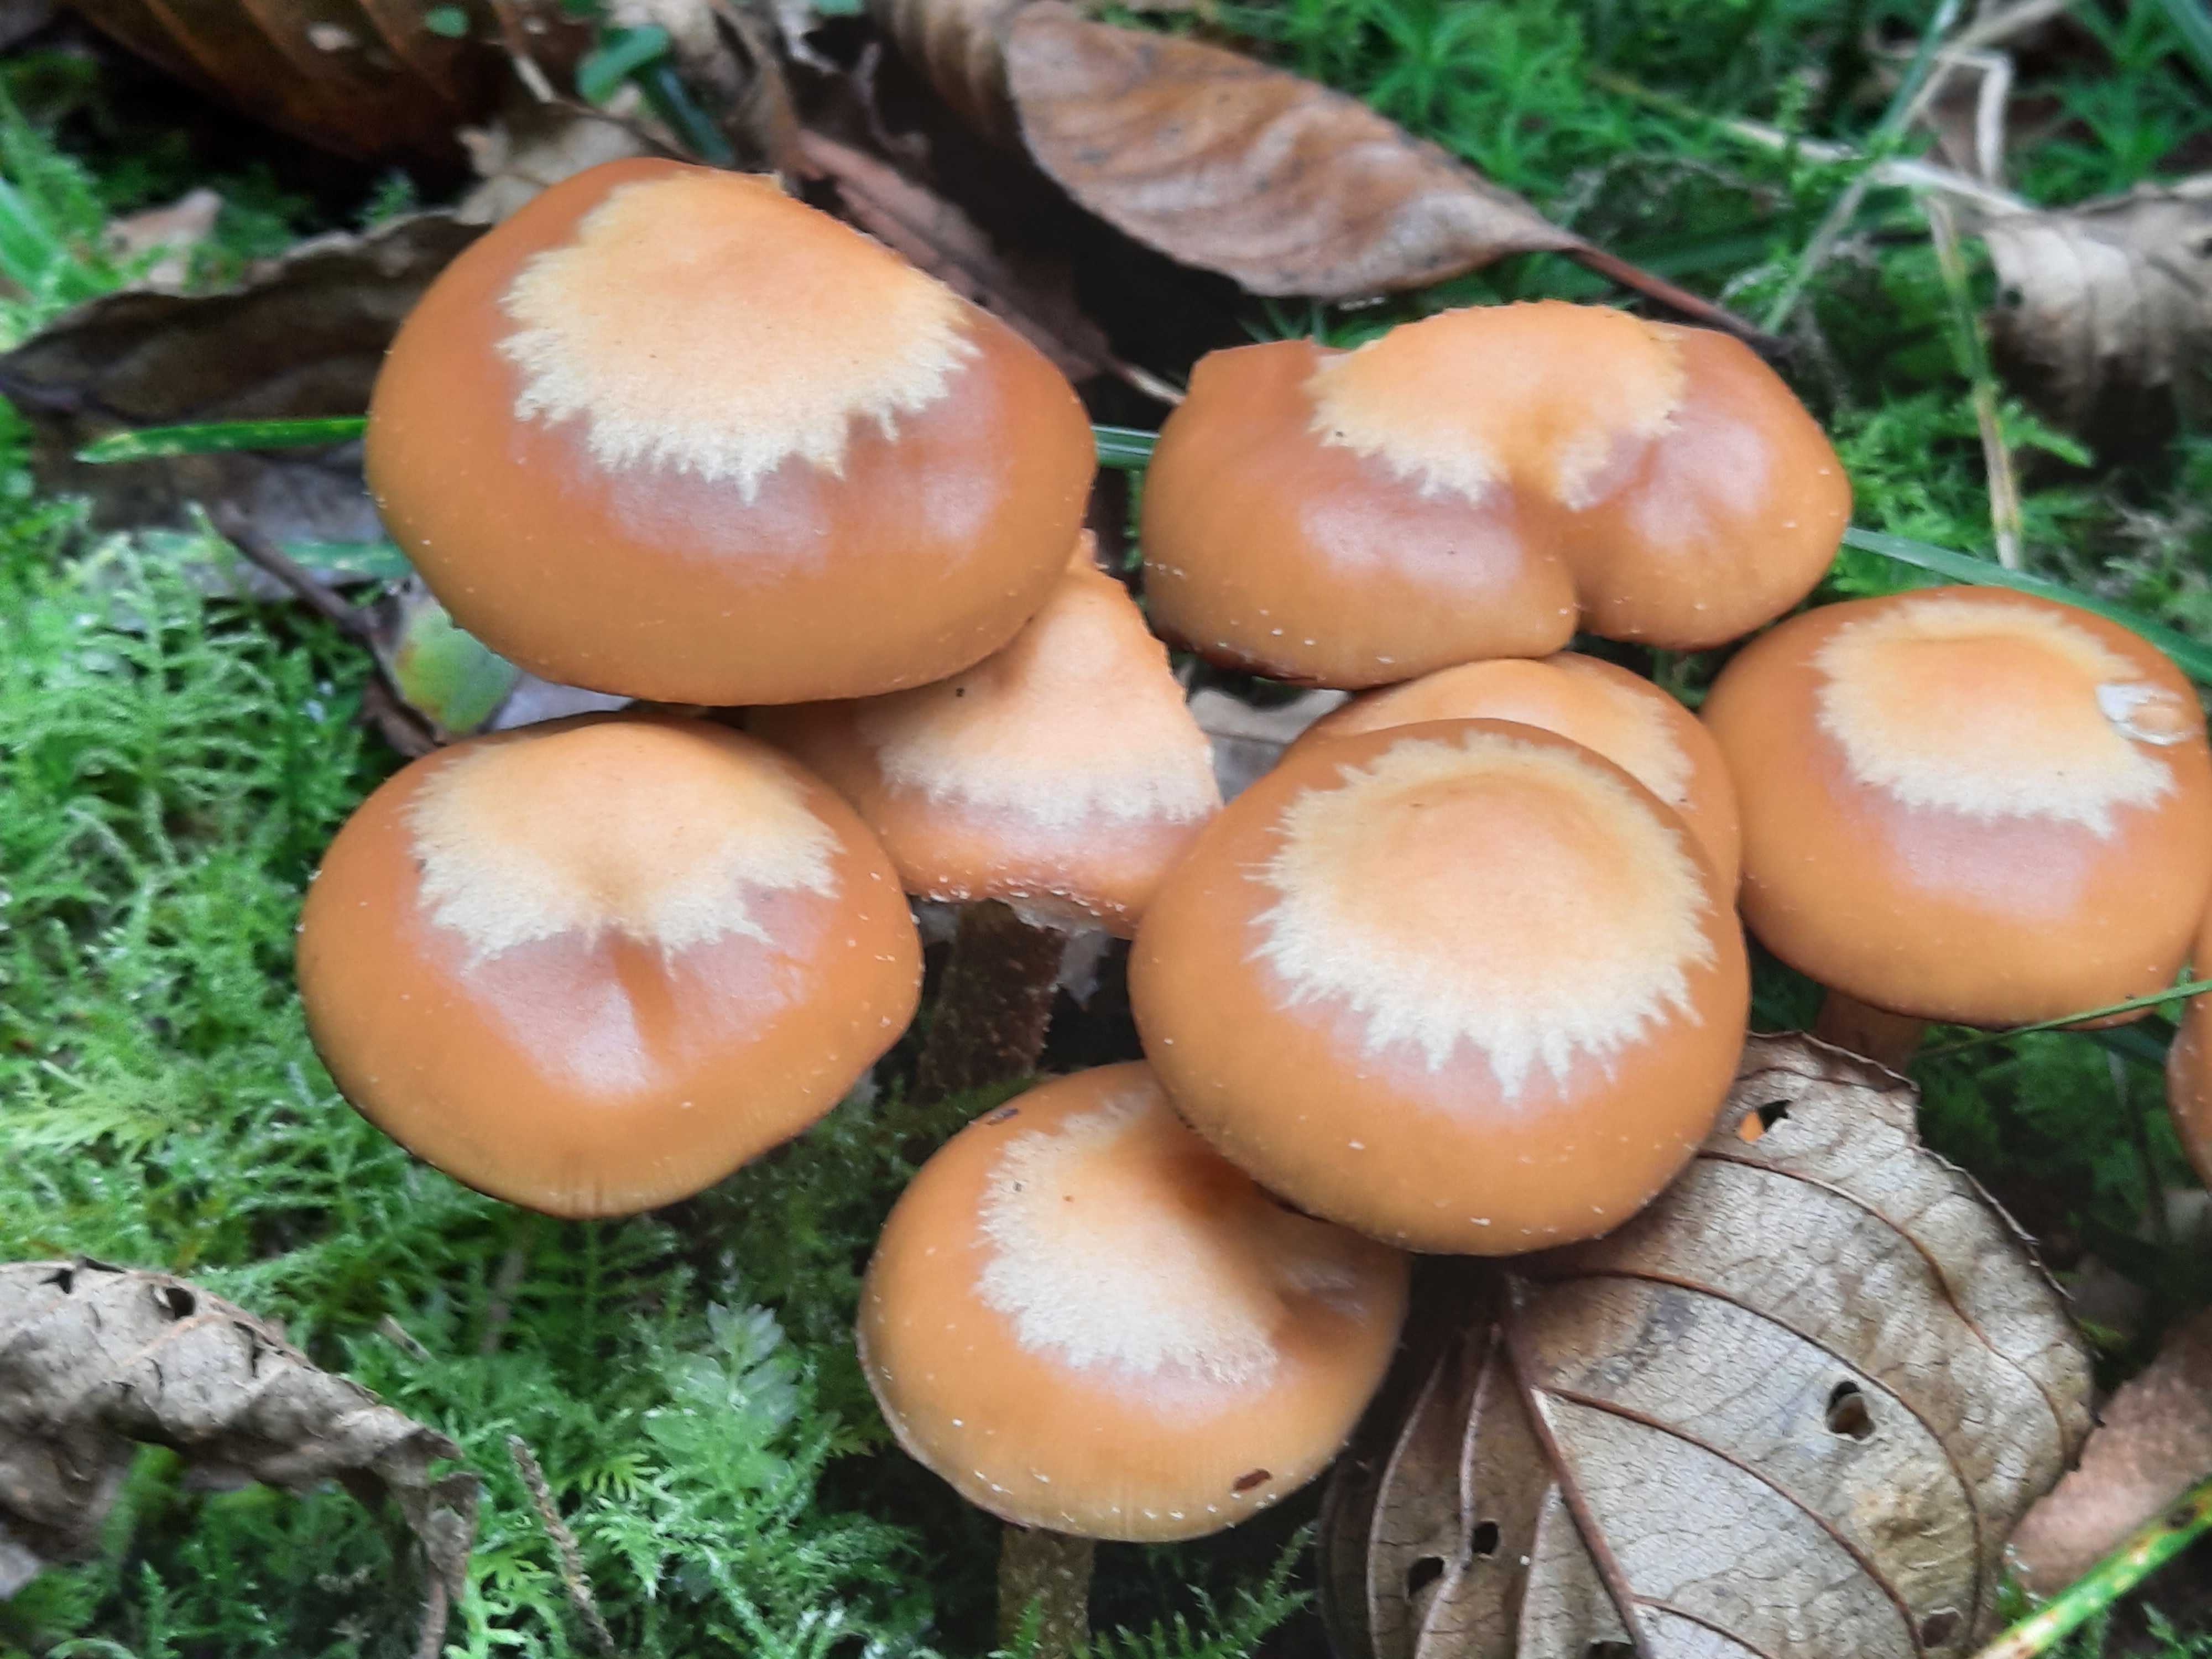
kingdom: Fungi
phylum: Basidiomycota
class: Agaricomycetes
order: Agaricales
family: Strophariaceae
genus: Kuehneromyces
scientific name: Kuehneromyces mutabilis
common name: foranderlig skælhat
